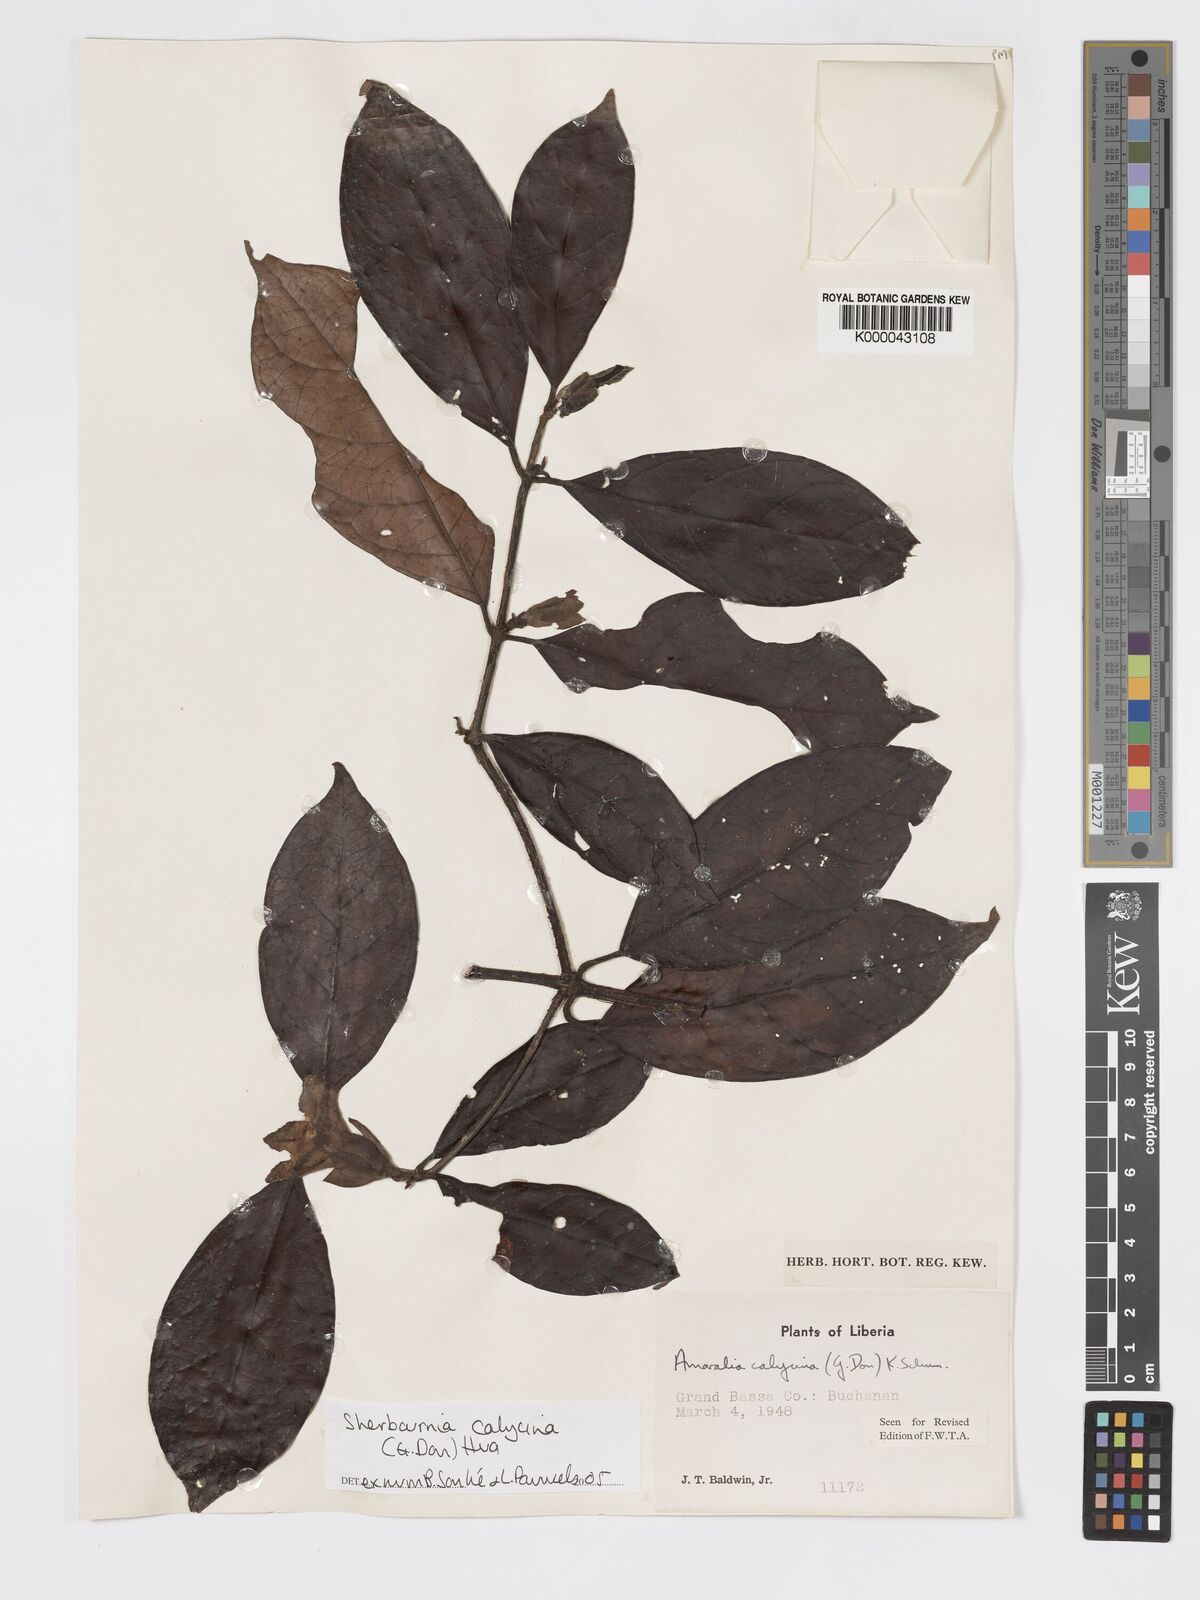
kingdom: Plantae
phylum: Tracheophyta
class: Magnoliopsida
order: Gentianales
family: Rubiaceae
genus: Sherbournia
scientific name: Sherbournia calycina
